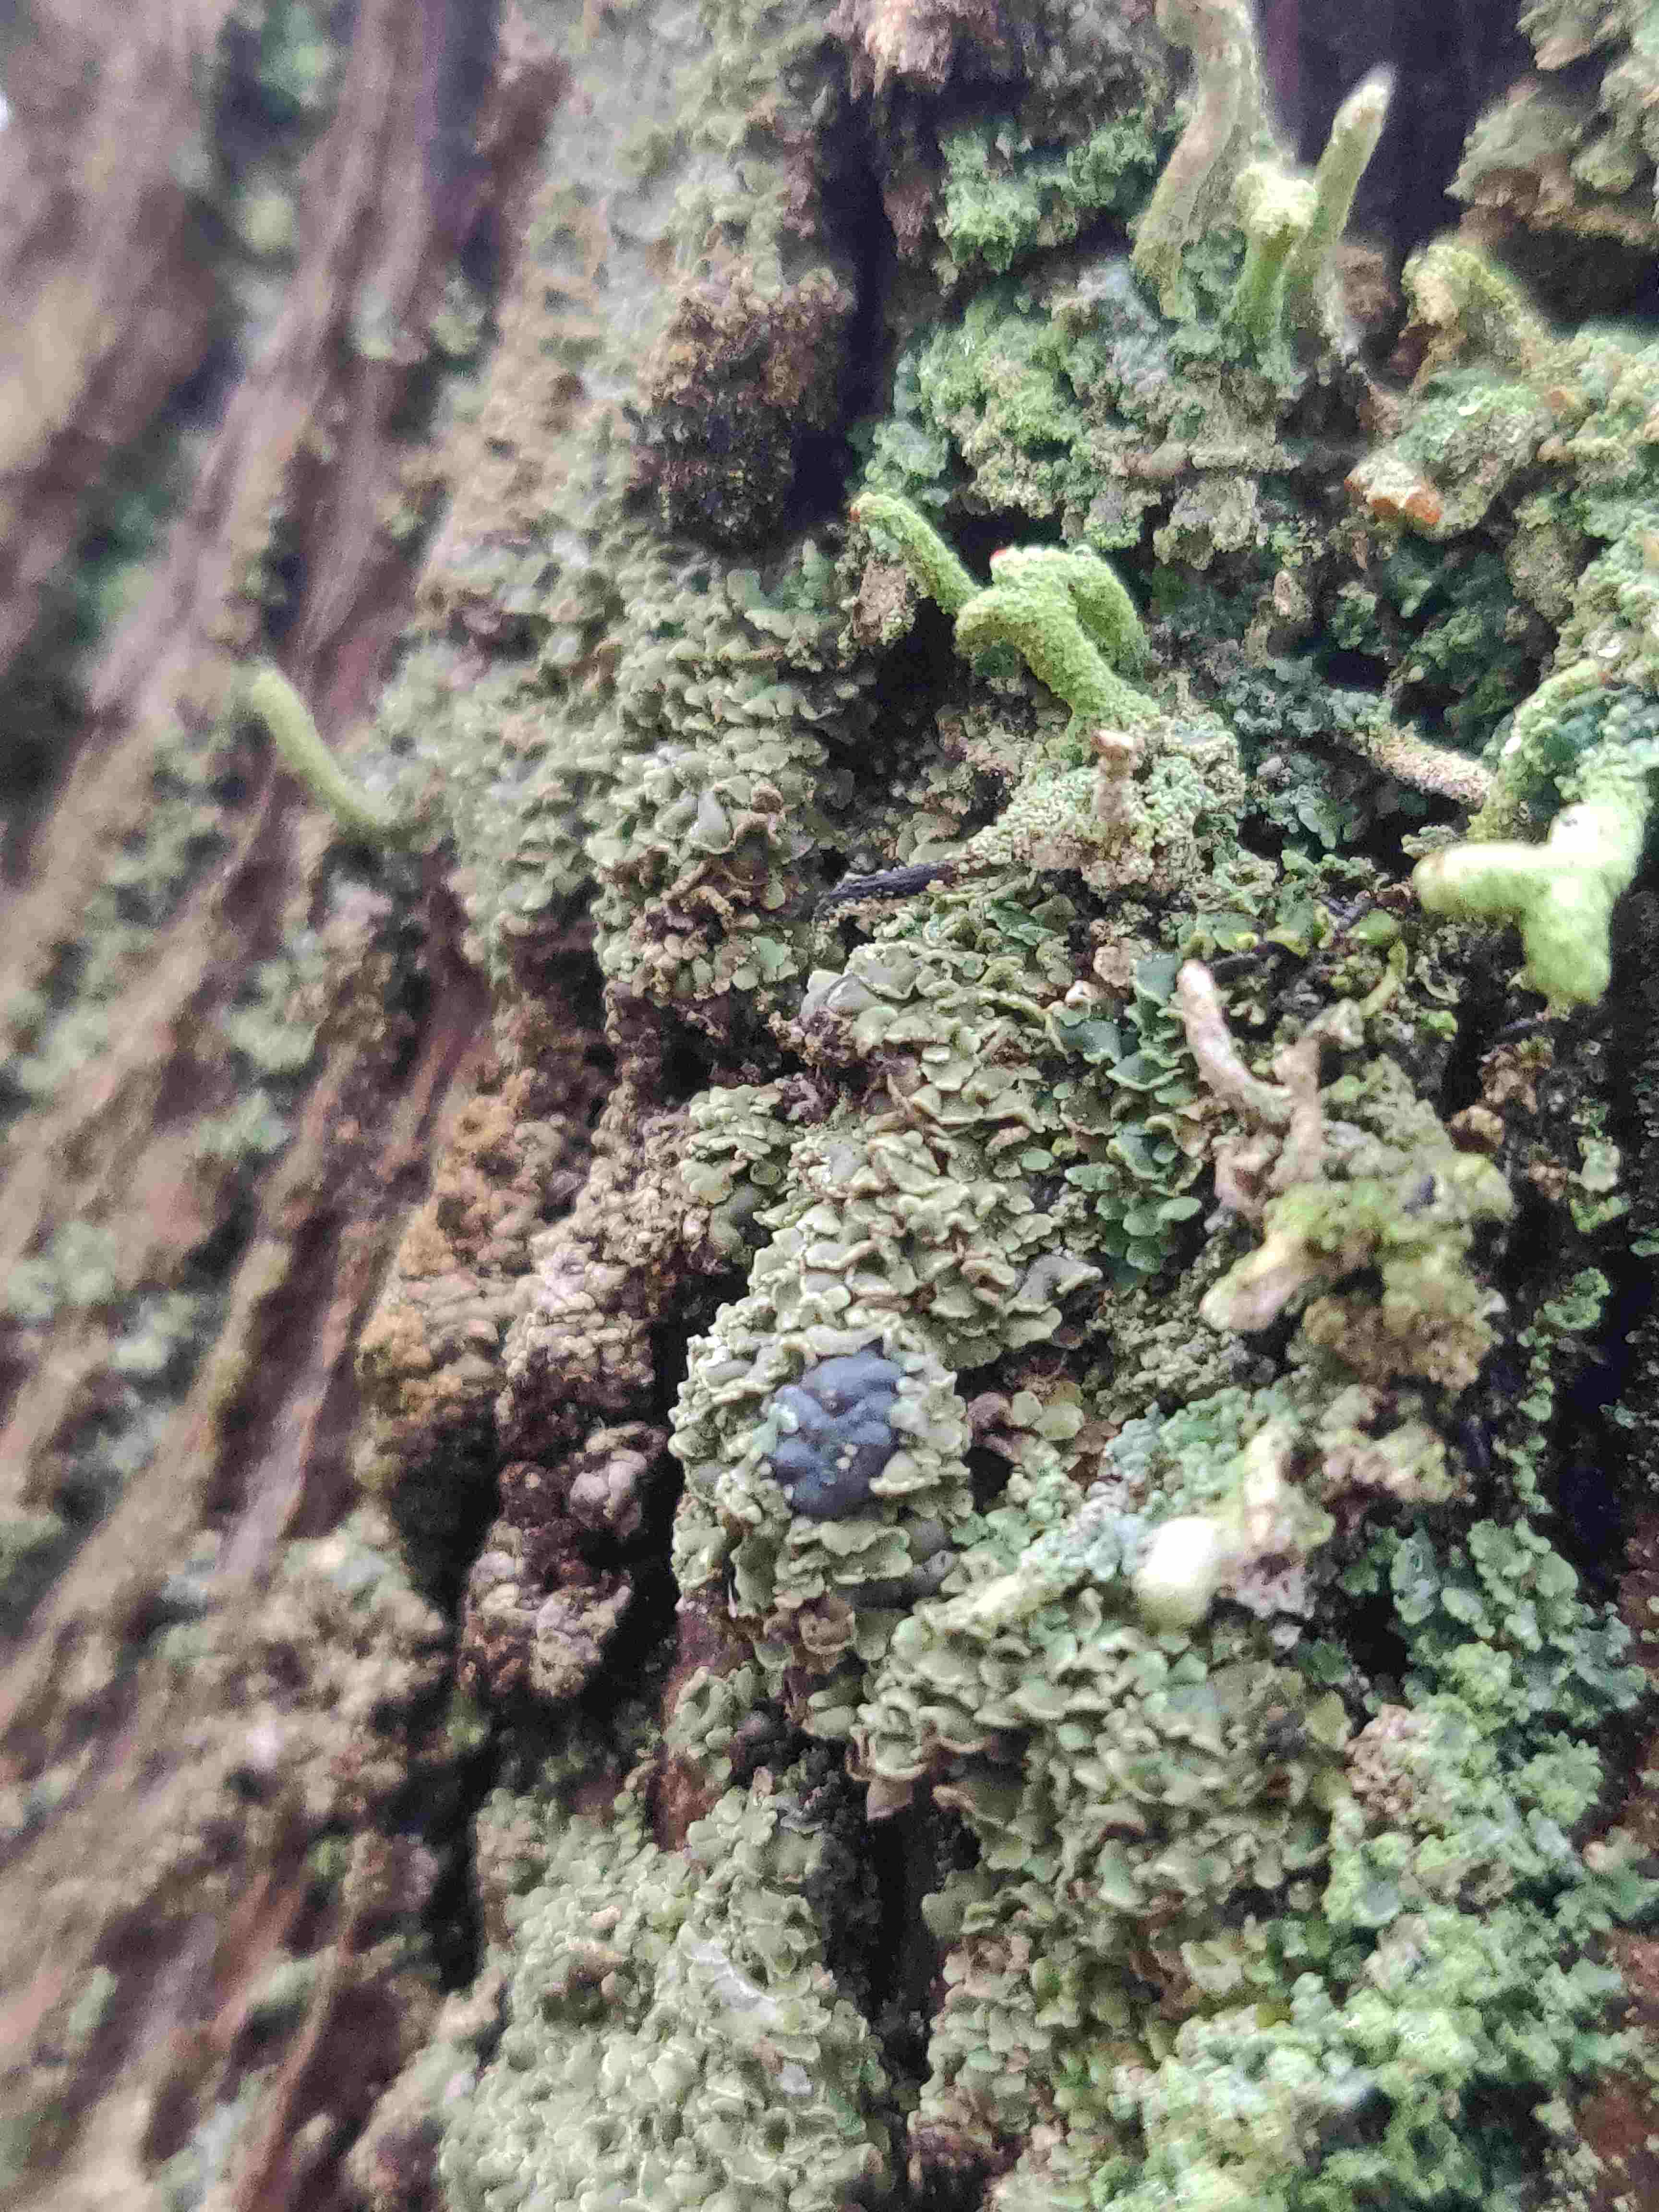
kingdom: Fungi
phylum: Ascomycota
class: Lecanoromycetes
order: Umbilicariales
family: Ophioparmaceae
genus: Hypocenomyce
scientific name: Hypocenomyce scalaris
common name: småskællet muslinglav
